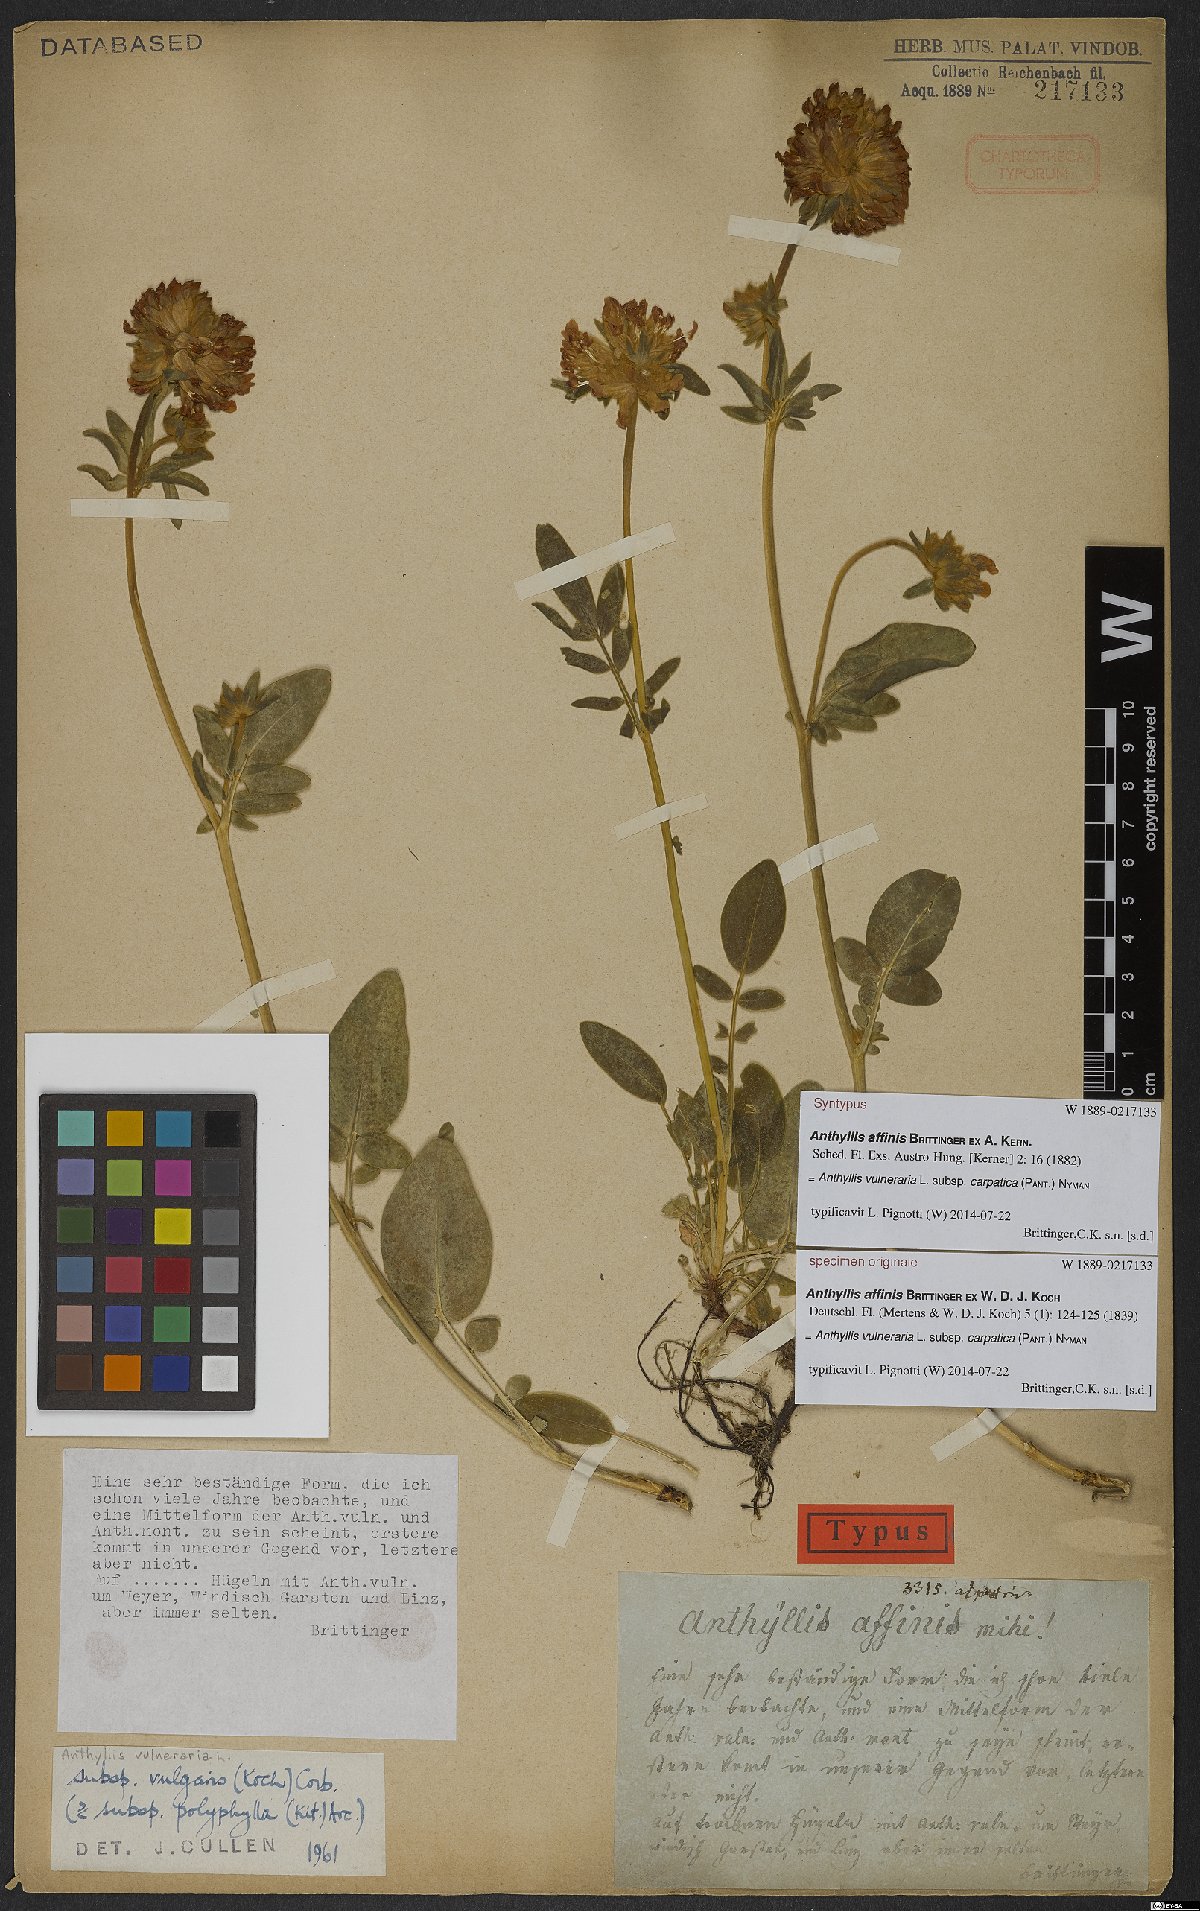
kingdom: Plantae
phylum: Tracheophyta
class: Magnoliopsida
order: Fabales
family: Fabaceae
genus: Anthyllis
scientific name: Anthyllis vulneraria
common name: Kidney vetch
